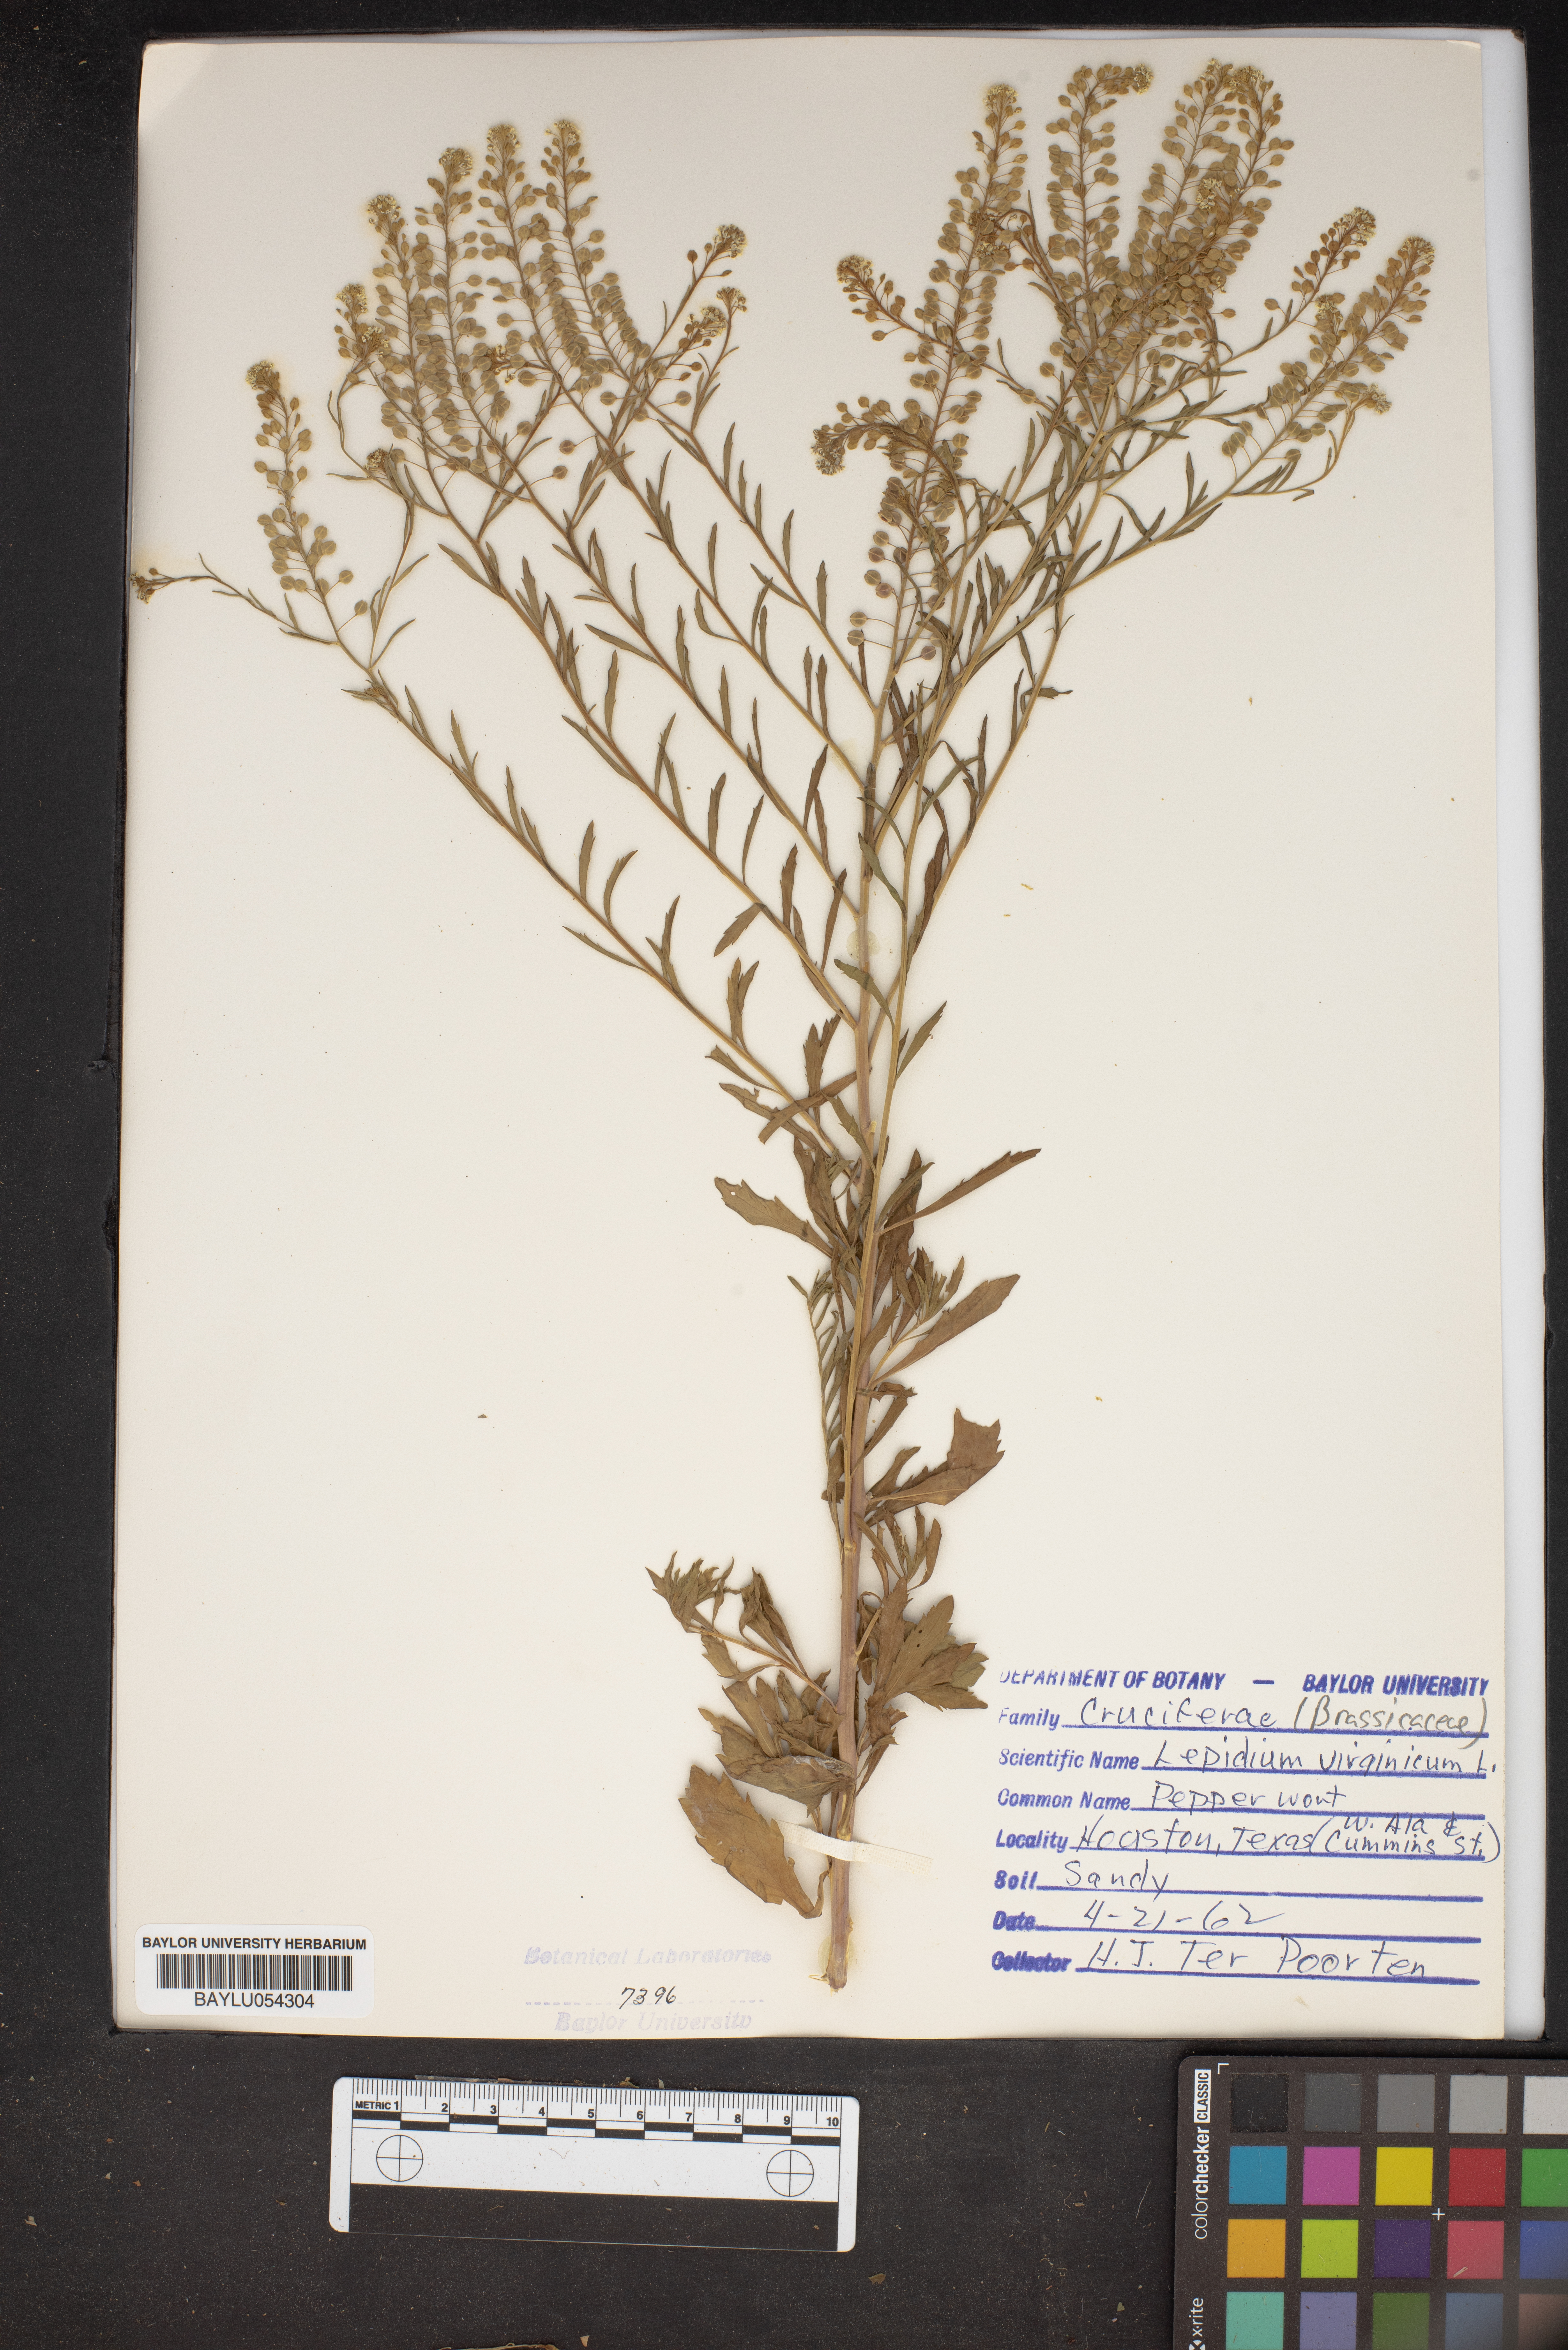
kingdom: Plantae
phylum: Tracheophyta
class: Magnoliopsida
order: Brassicales
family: Brassicaceae
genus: Lepidium
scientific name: Lepidium virginicum
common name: Least pepperwort
